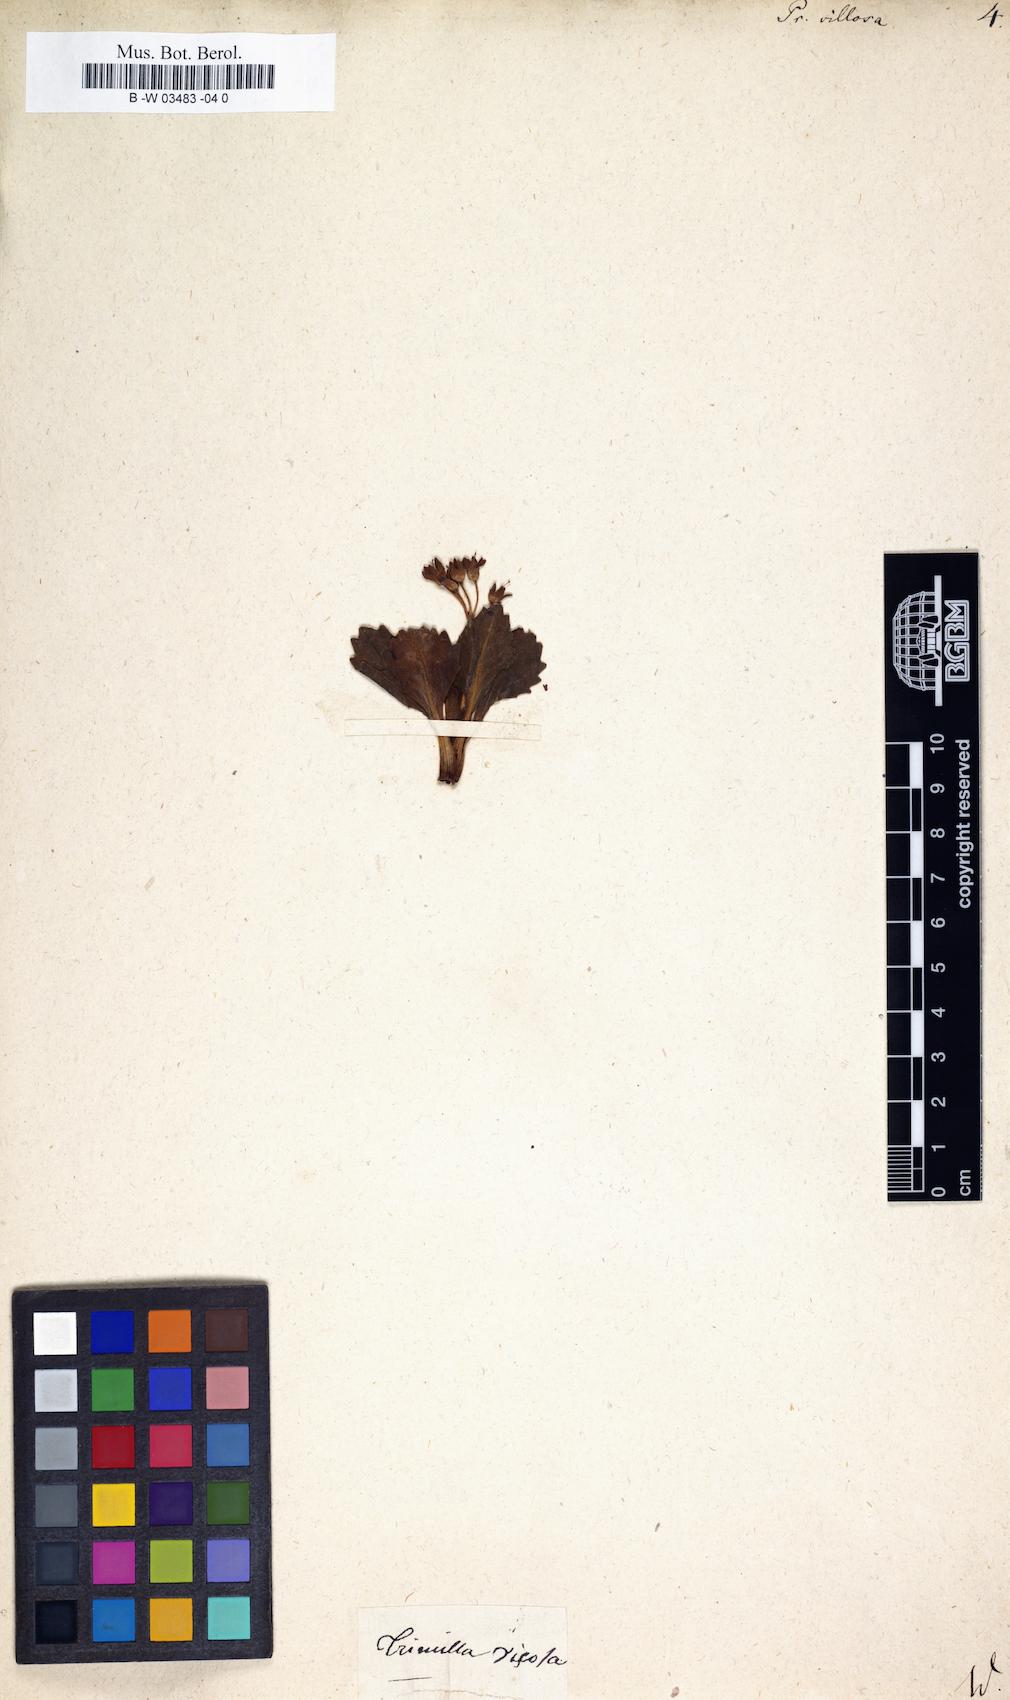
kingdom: Plantae
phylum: Tracheophyta
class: Magnoliopsida
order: Ericales
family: Primulaceae
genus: Primula
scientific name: Primula villosa
